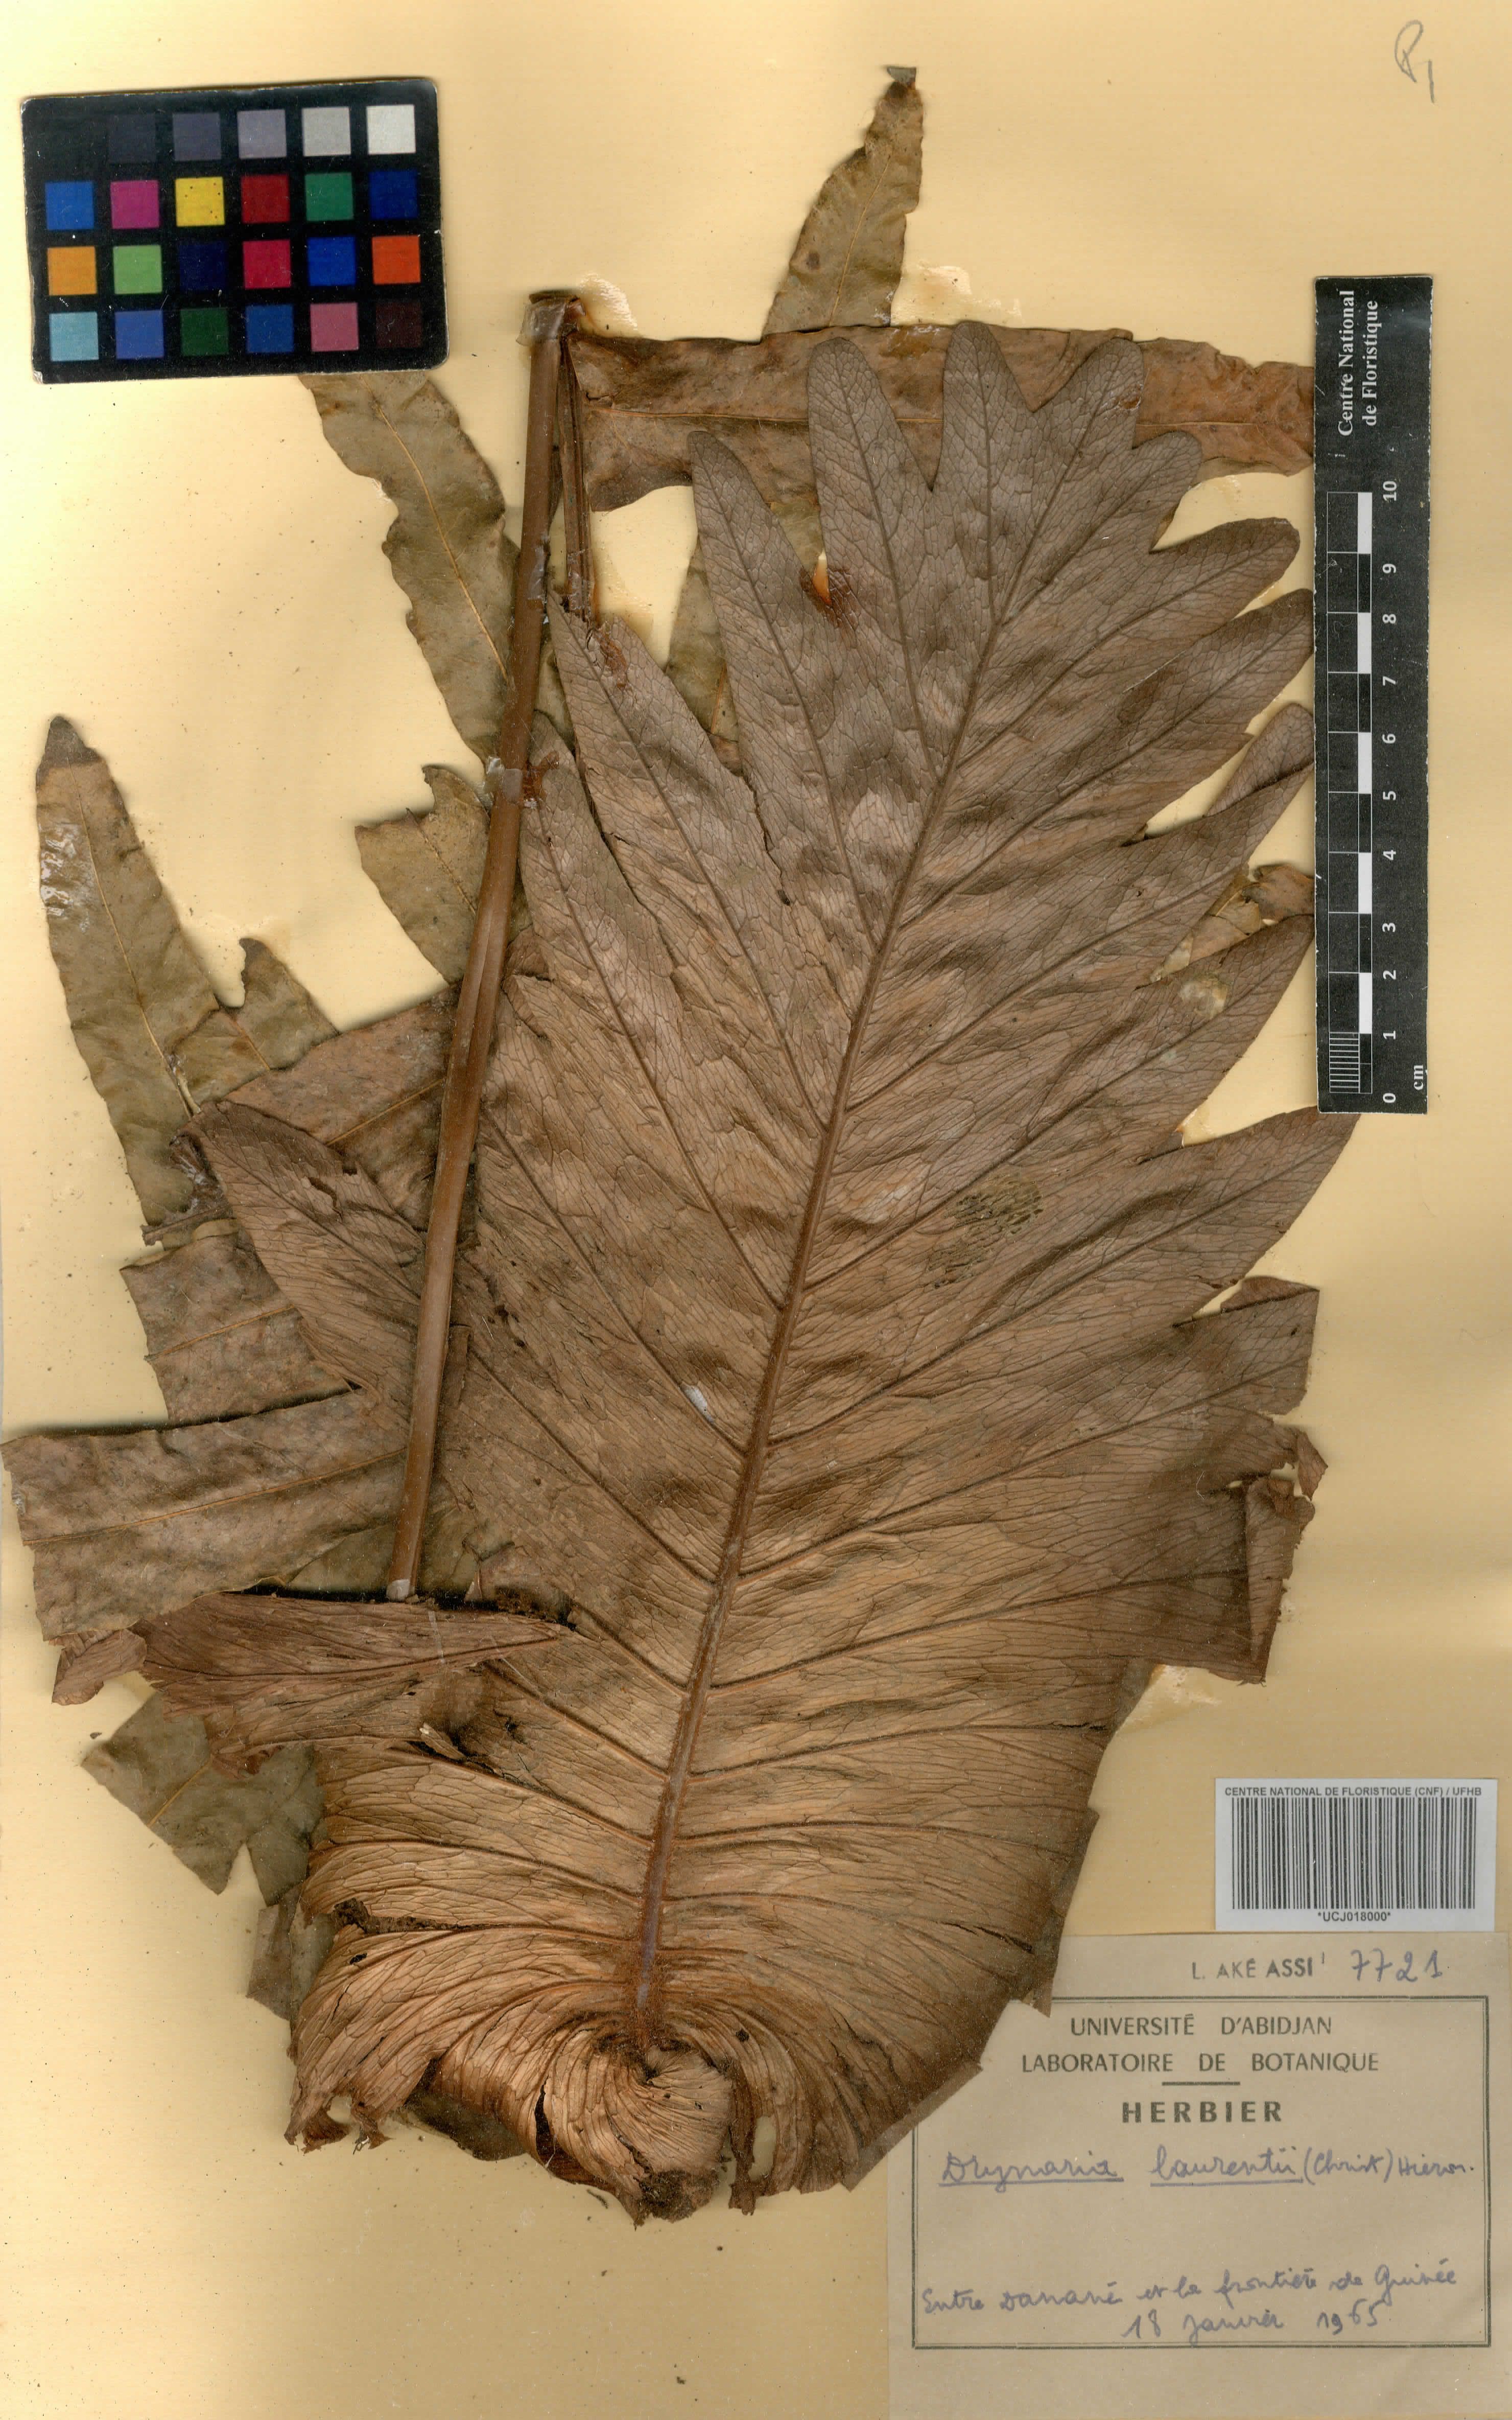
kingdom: Plantae
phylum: Tracheophyta
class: Polypodiopsida
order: Polypodiales
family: Polypodiaceae
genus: Drynaria
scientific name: Drynaria laurentii
